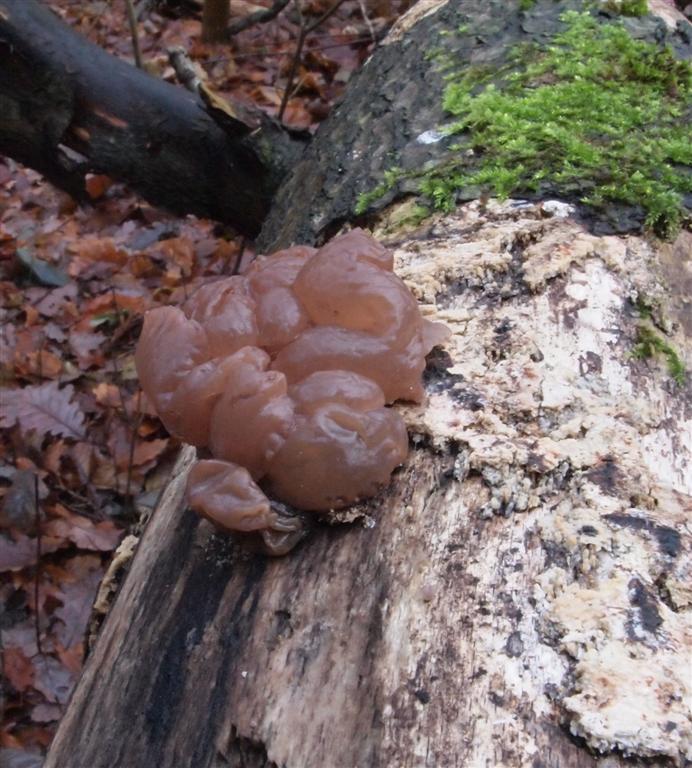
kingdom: Fungi
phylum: Ascomycota
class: Leotiomycetes
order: Helotiales
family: Gelatinodiscaceae
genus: Neobulgaria
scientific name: Neobulgaria pura
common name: bleg bævreskive
